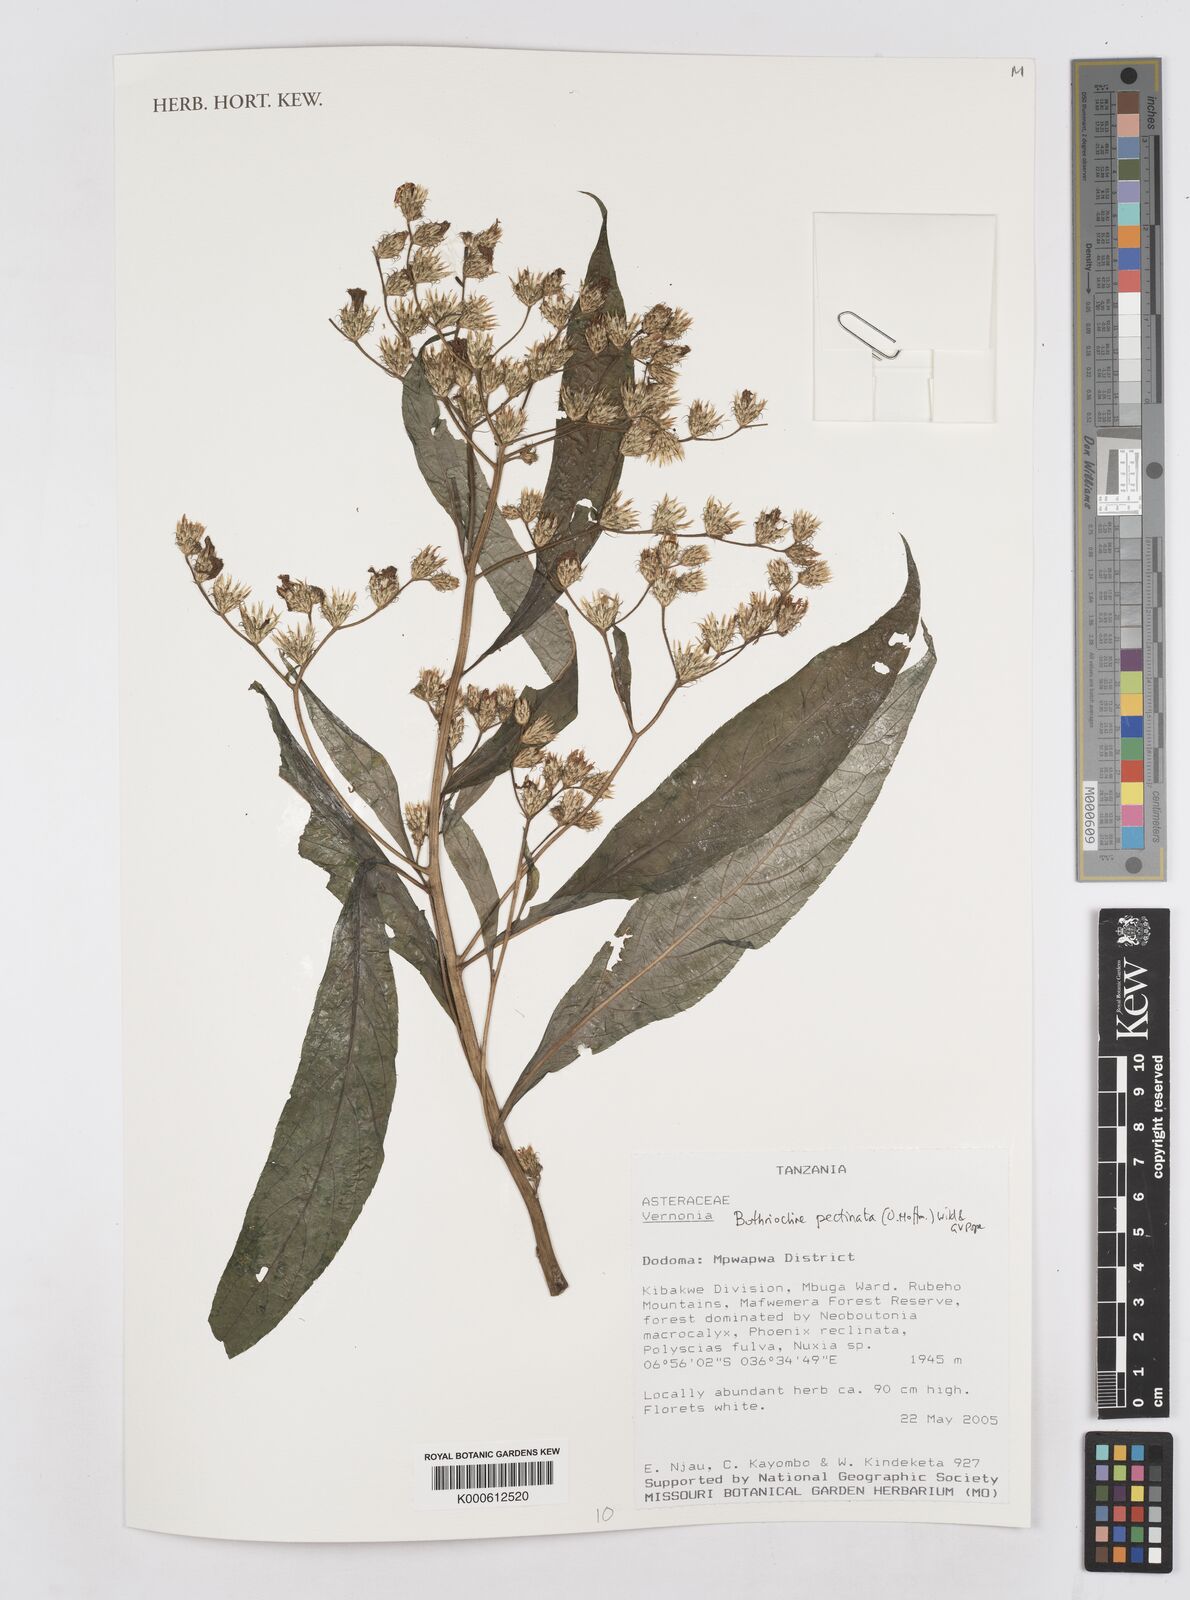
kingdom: Plantae
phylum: Tracheophyta
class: Magnoliopsida
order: Asterales
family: Asteraceae
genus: Bothriocline
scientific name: Bothriocline pectinata
